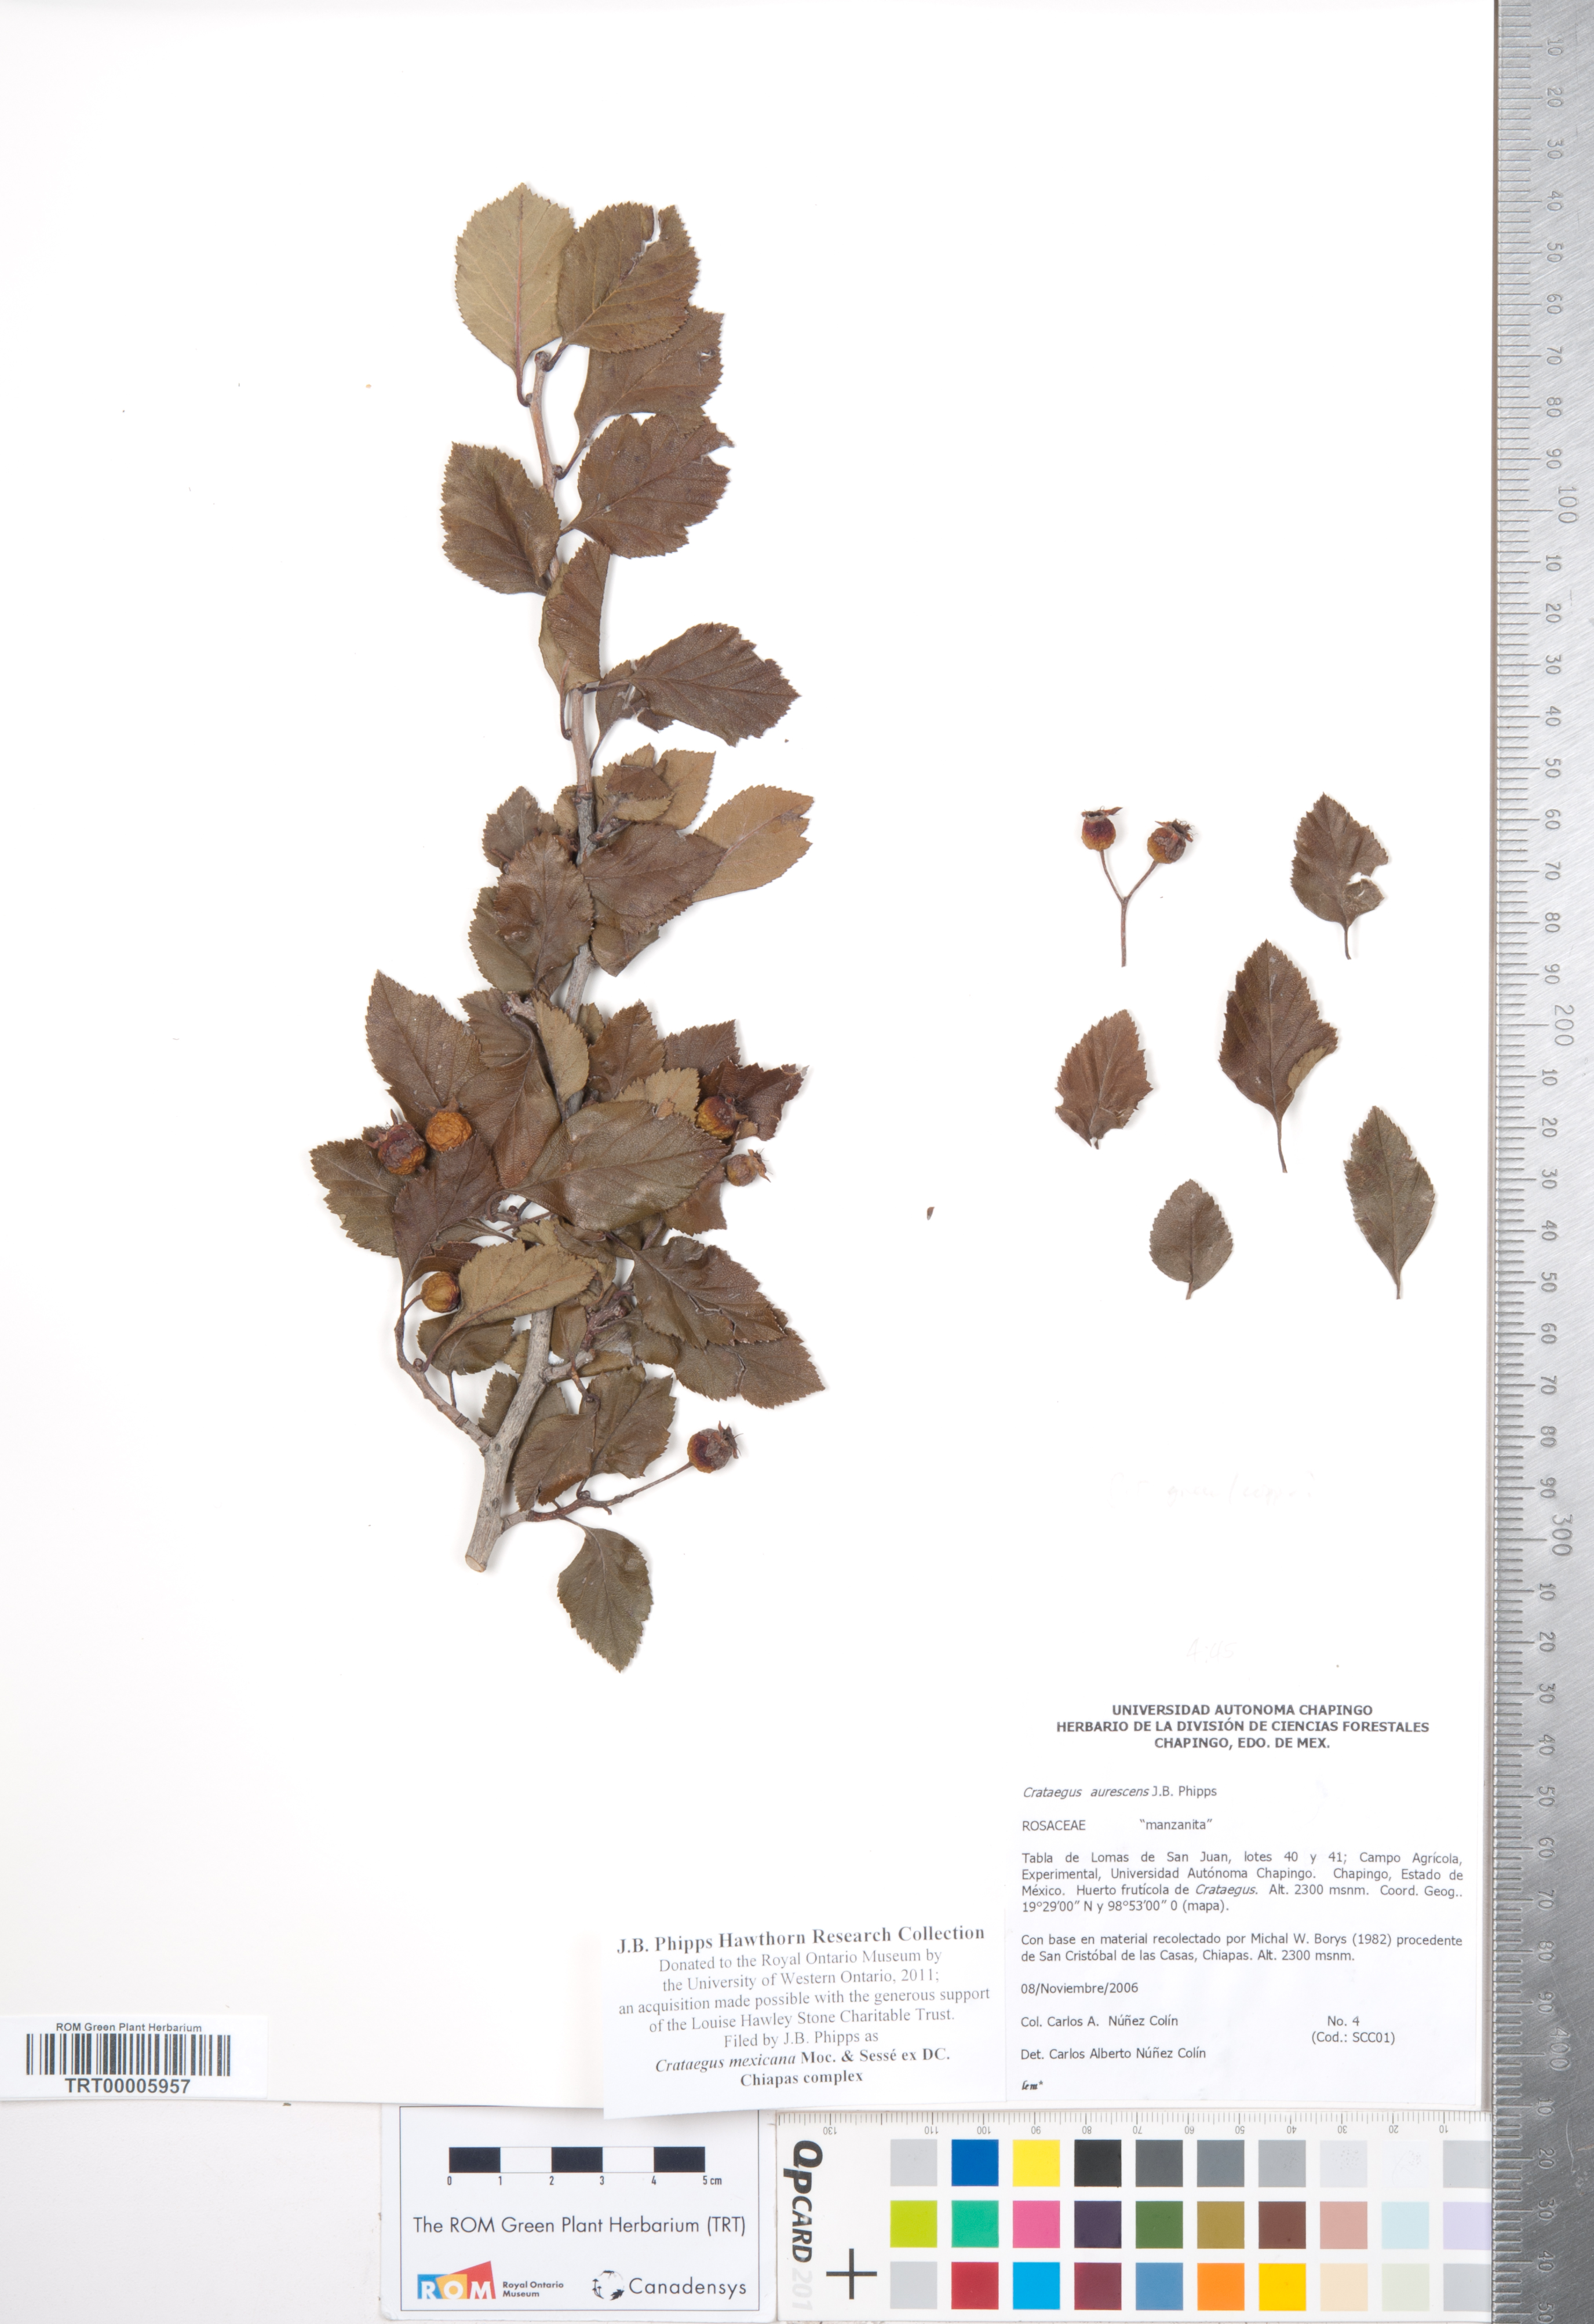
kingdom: Plantae
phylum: Tracheophyta
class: Magnoliopsida
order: Rosales
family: Rosaceae
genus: Crataegus
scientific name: Crataegus mexicana
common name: Mexican hawthorn
